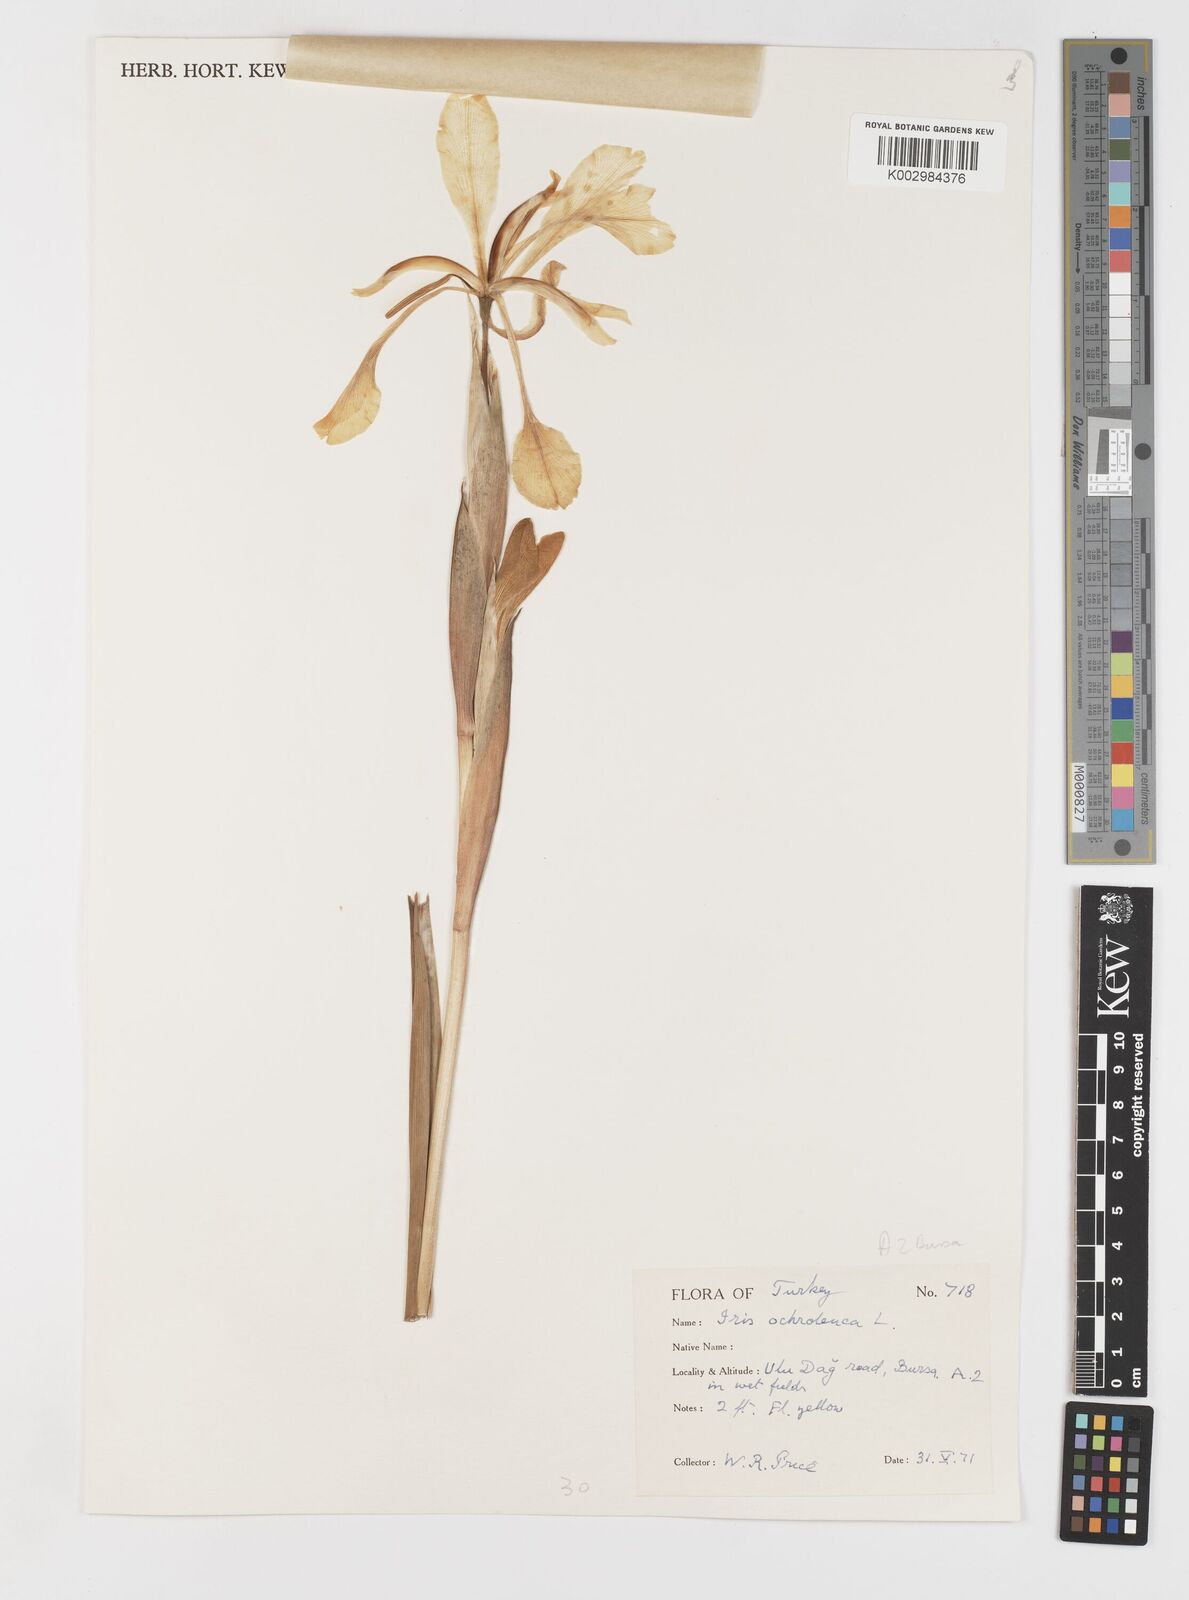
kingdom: Plantae
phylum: Tracheophyta
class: Liliopsida
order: Asparagales
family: Iridaceae
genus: Iris
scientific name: Iris orientalis
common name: Turkish iris
